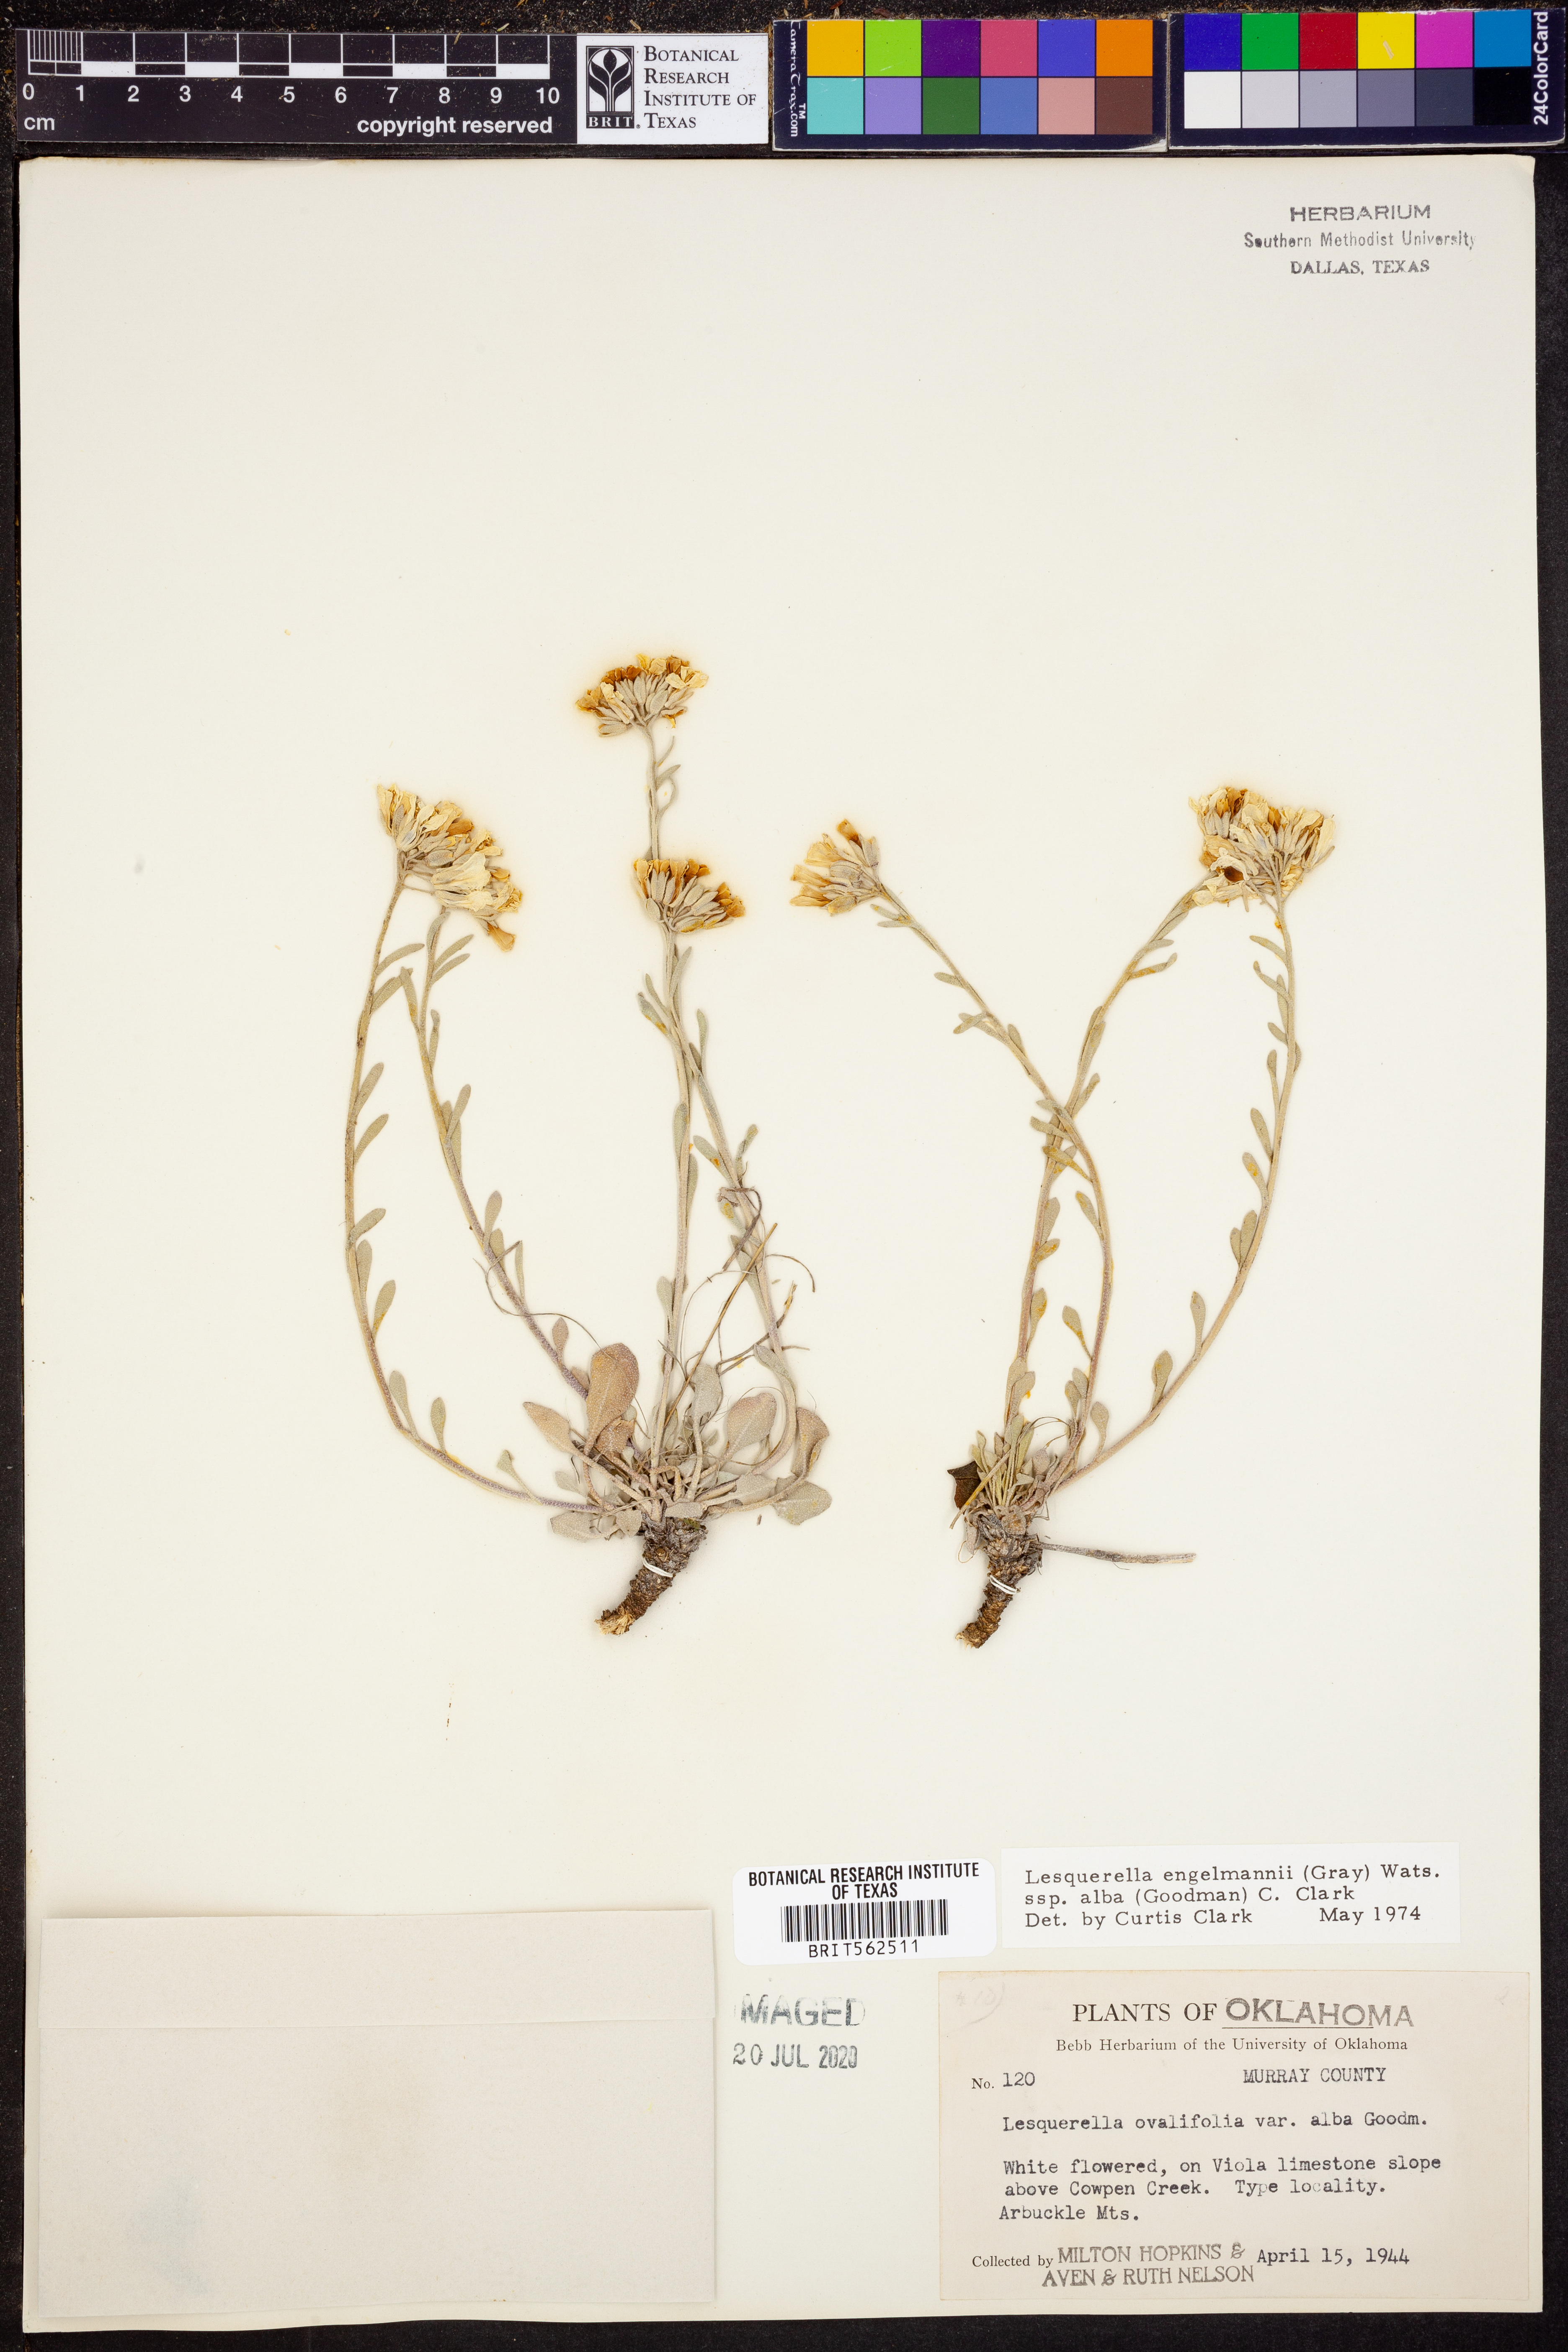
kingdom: Plantae
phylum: Tracheophyta
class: Magnoliopsida
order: Brassicales
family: Brassicaceae
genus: Physaria
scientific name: Physaria ovalifolia
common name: Round-leaf bladderpod
